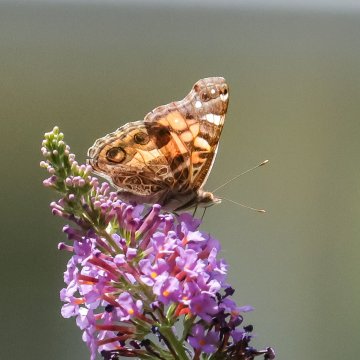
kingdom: Animalia
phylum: Arthropoda
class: Insecta
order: Lepidoptera
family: Nymphalidae
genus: Vanessa
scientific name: Vanessa virginiensis
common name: American Lady
